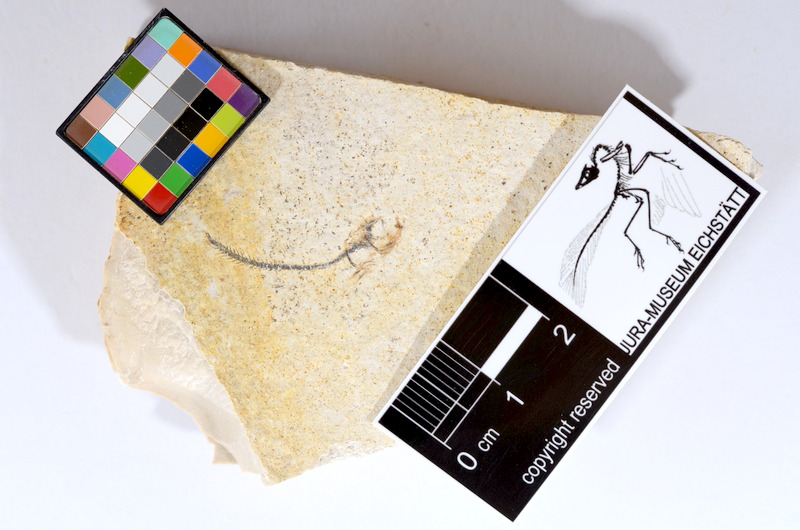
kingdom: Animalia
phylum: Chordata
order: Salmoniformes
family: Orthogonikleithridae
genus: Orthogonikleithrus
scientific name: Orthogonikleithrus hoelli
